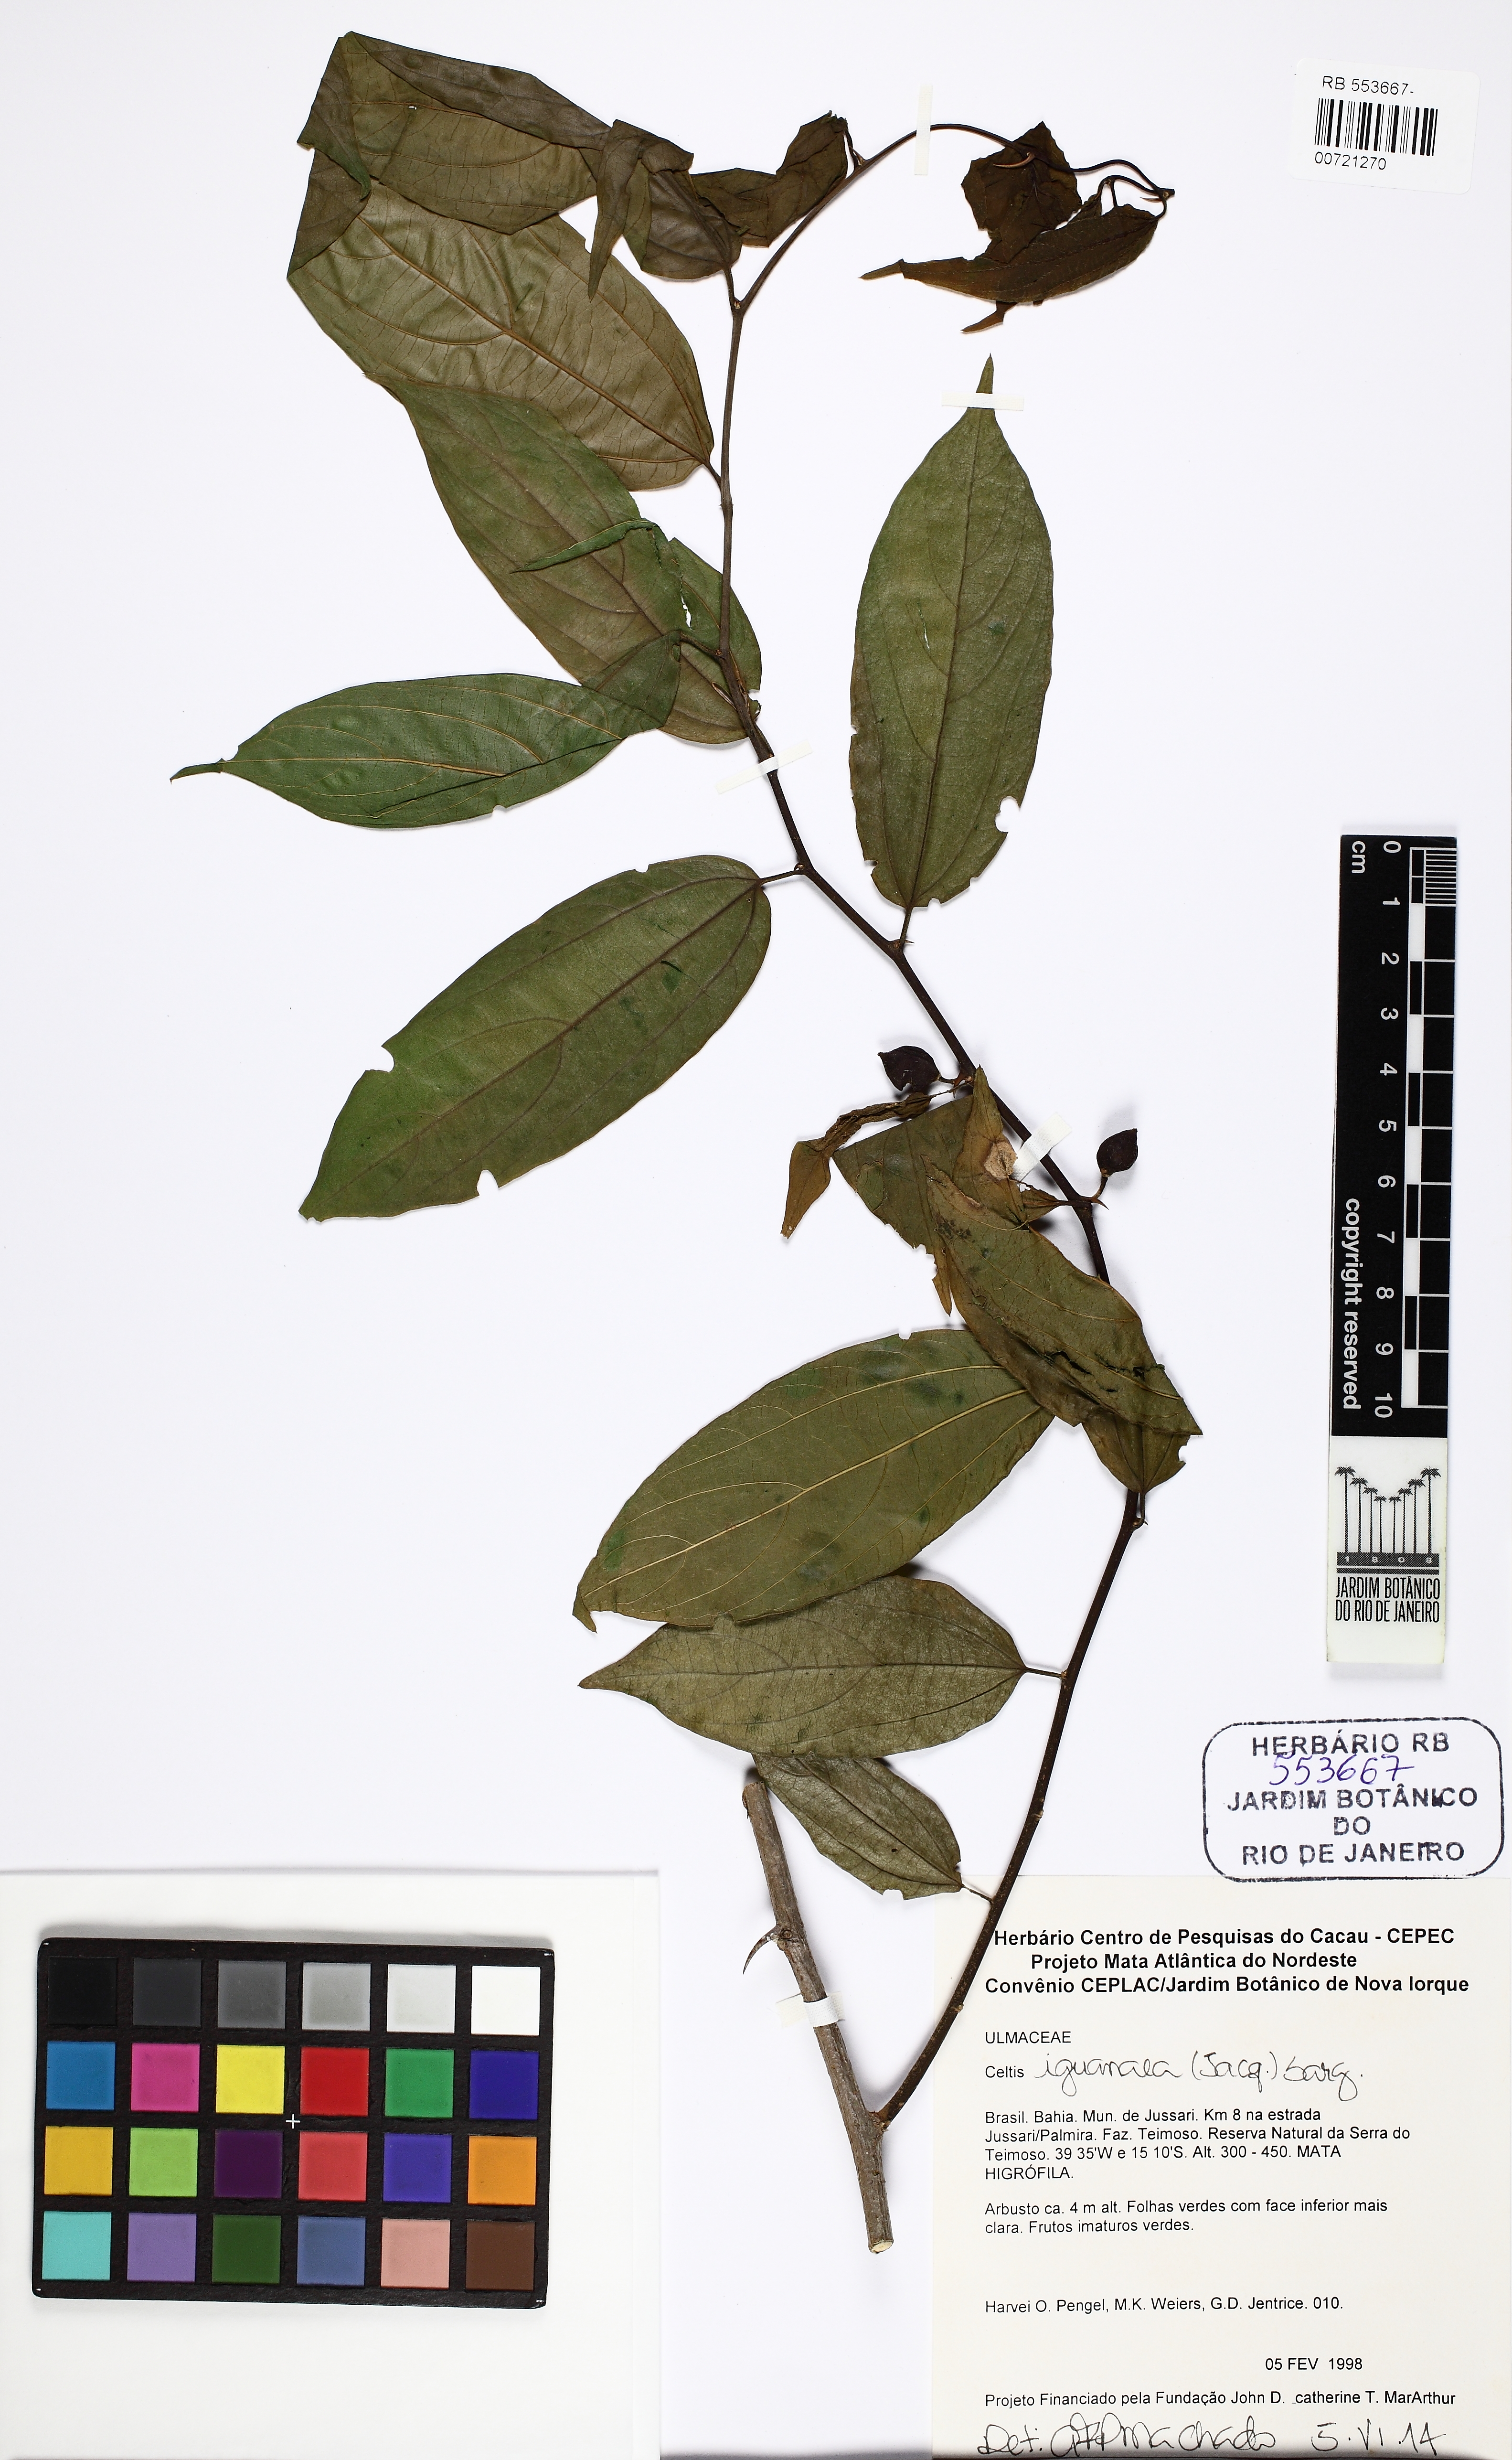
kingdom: Plantae
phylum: Tracheophyta
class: Magnoliopsida
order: Rosales
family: Cannabaceae
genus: Celtis
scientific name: Celtis iguanaea
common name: Iguana hackberry
